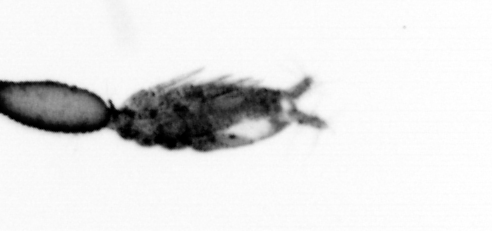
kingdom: Animalia
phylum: Arthropoda
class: Copepoda
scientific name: Copepoda
